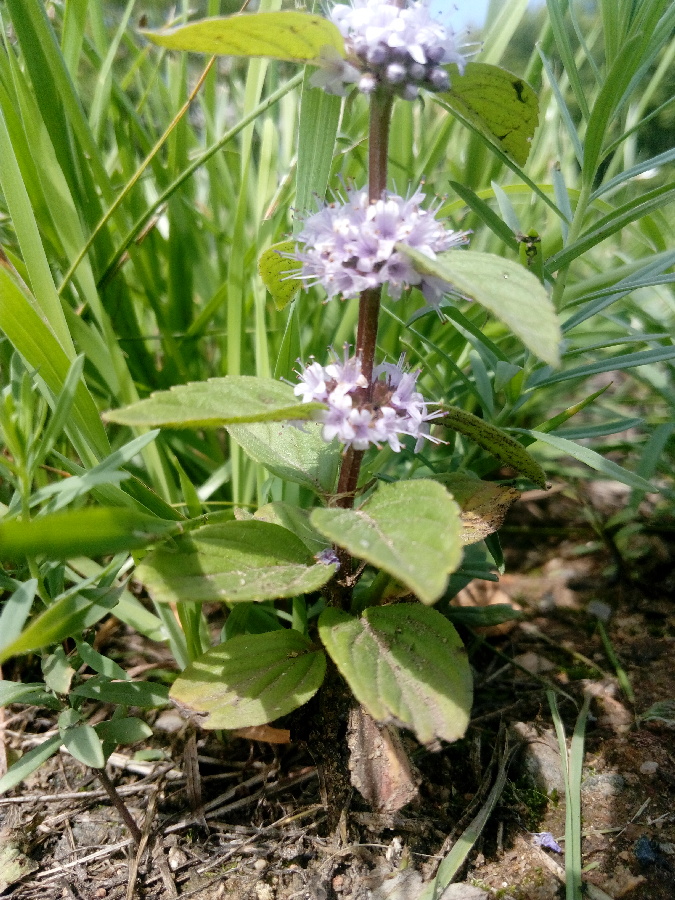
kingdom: Plantae
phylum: Tracheophyta
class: Magnoliopsida
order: Lamiales
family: Lamiaceae
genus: Mentha
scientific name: Mentha arvensis
